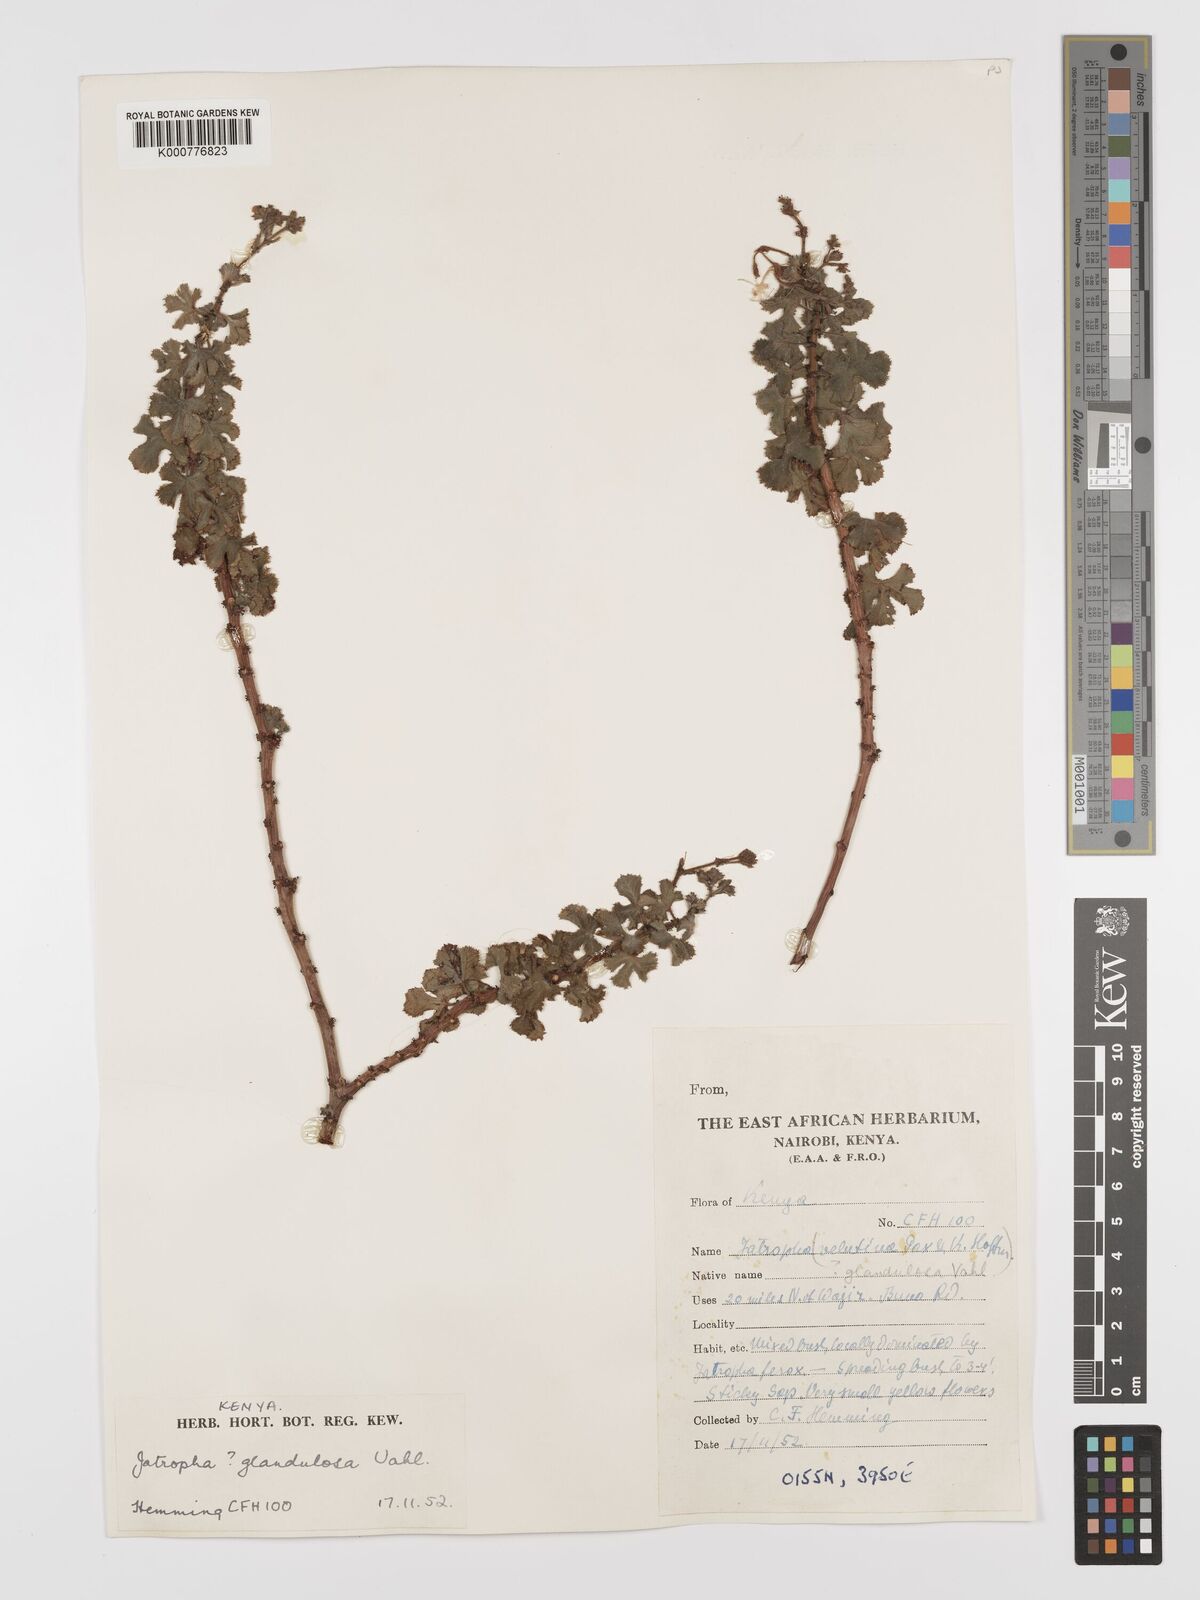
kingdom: Plantae
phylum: Tracheophyta
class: Magnoliopsida
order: Malpighiales
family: Euphorbiaceae
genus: Jatropha
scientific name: Jatropha pelargoniifolia
